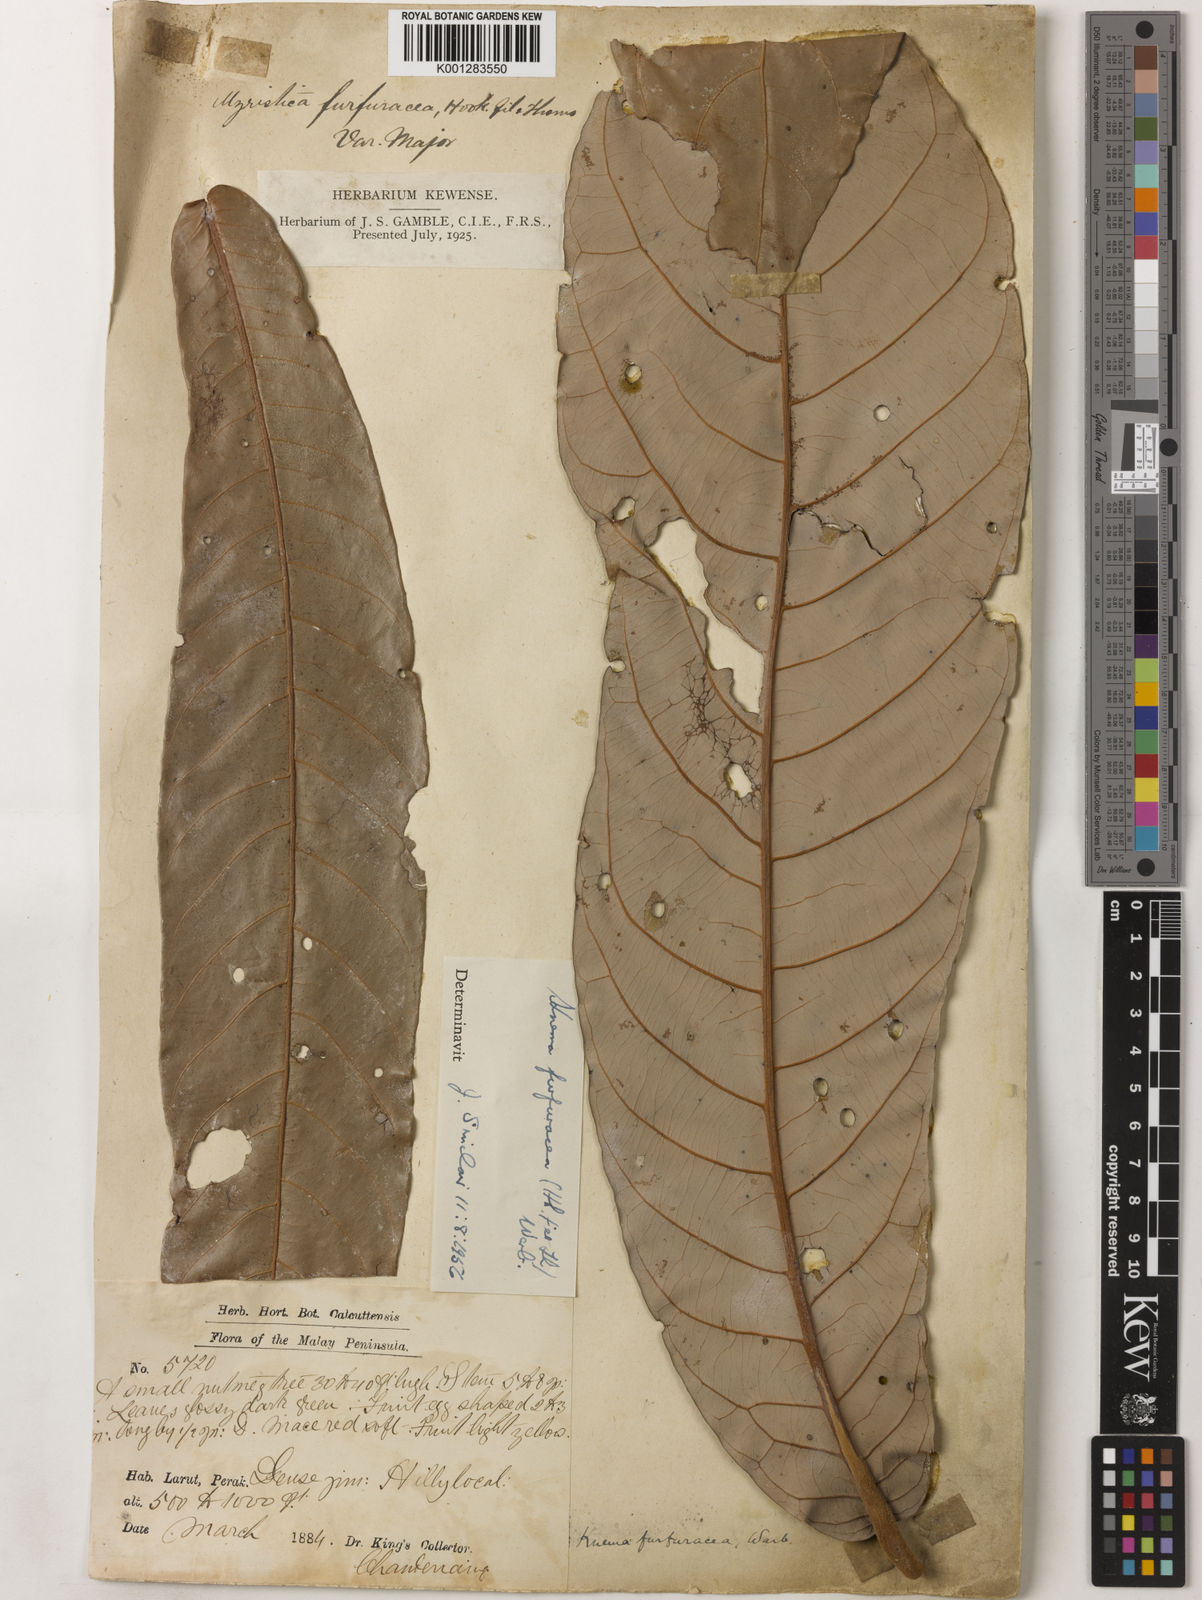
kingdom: Plantae
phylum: Tracheophyta
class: Magnoliopsida
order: Magnoliales
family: Myristicaceae
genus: Knema
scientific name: Knema furfuracea
